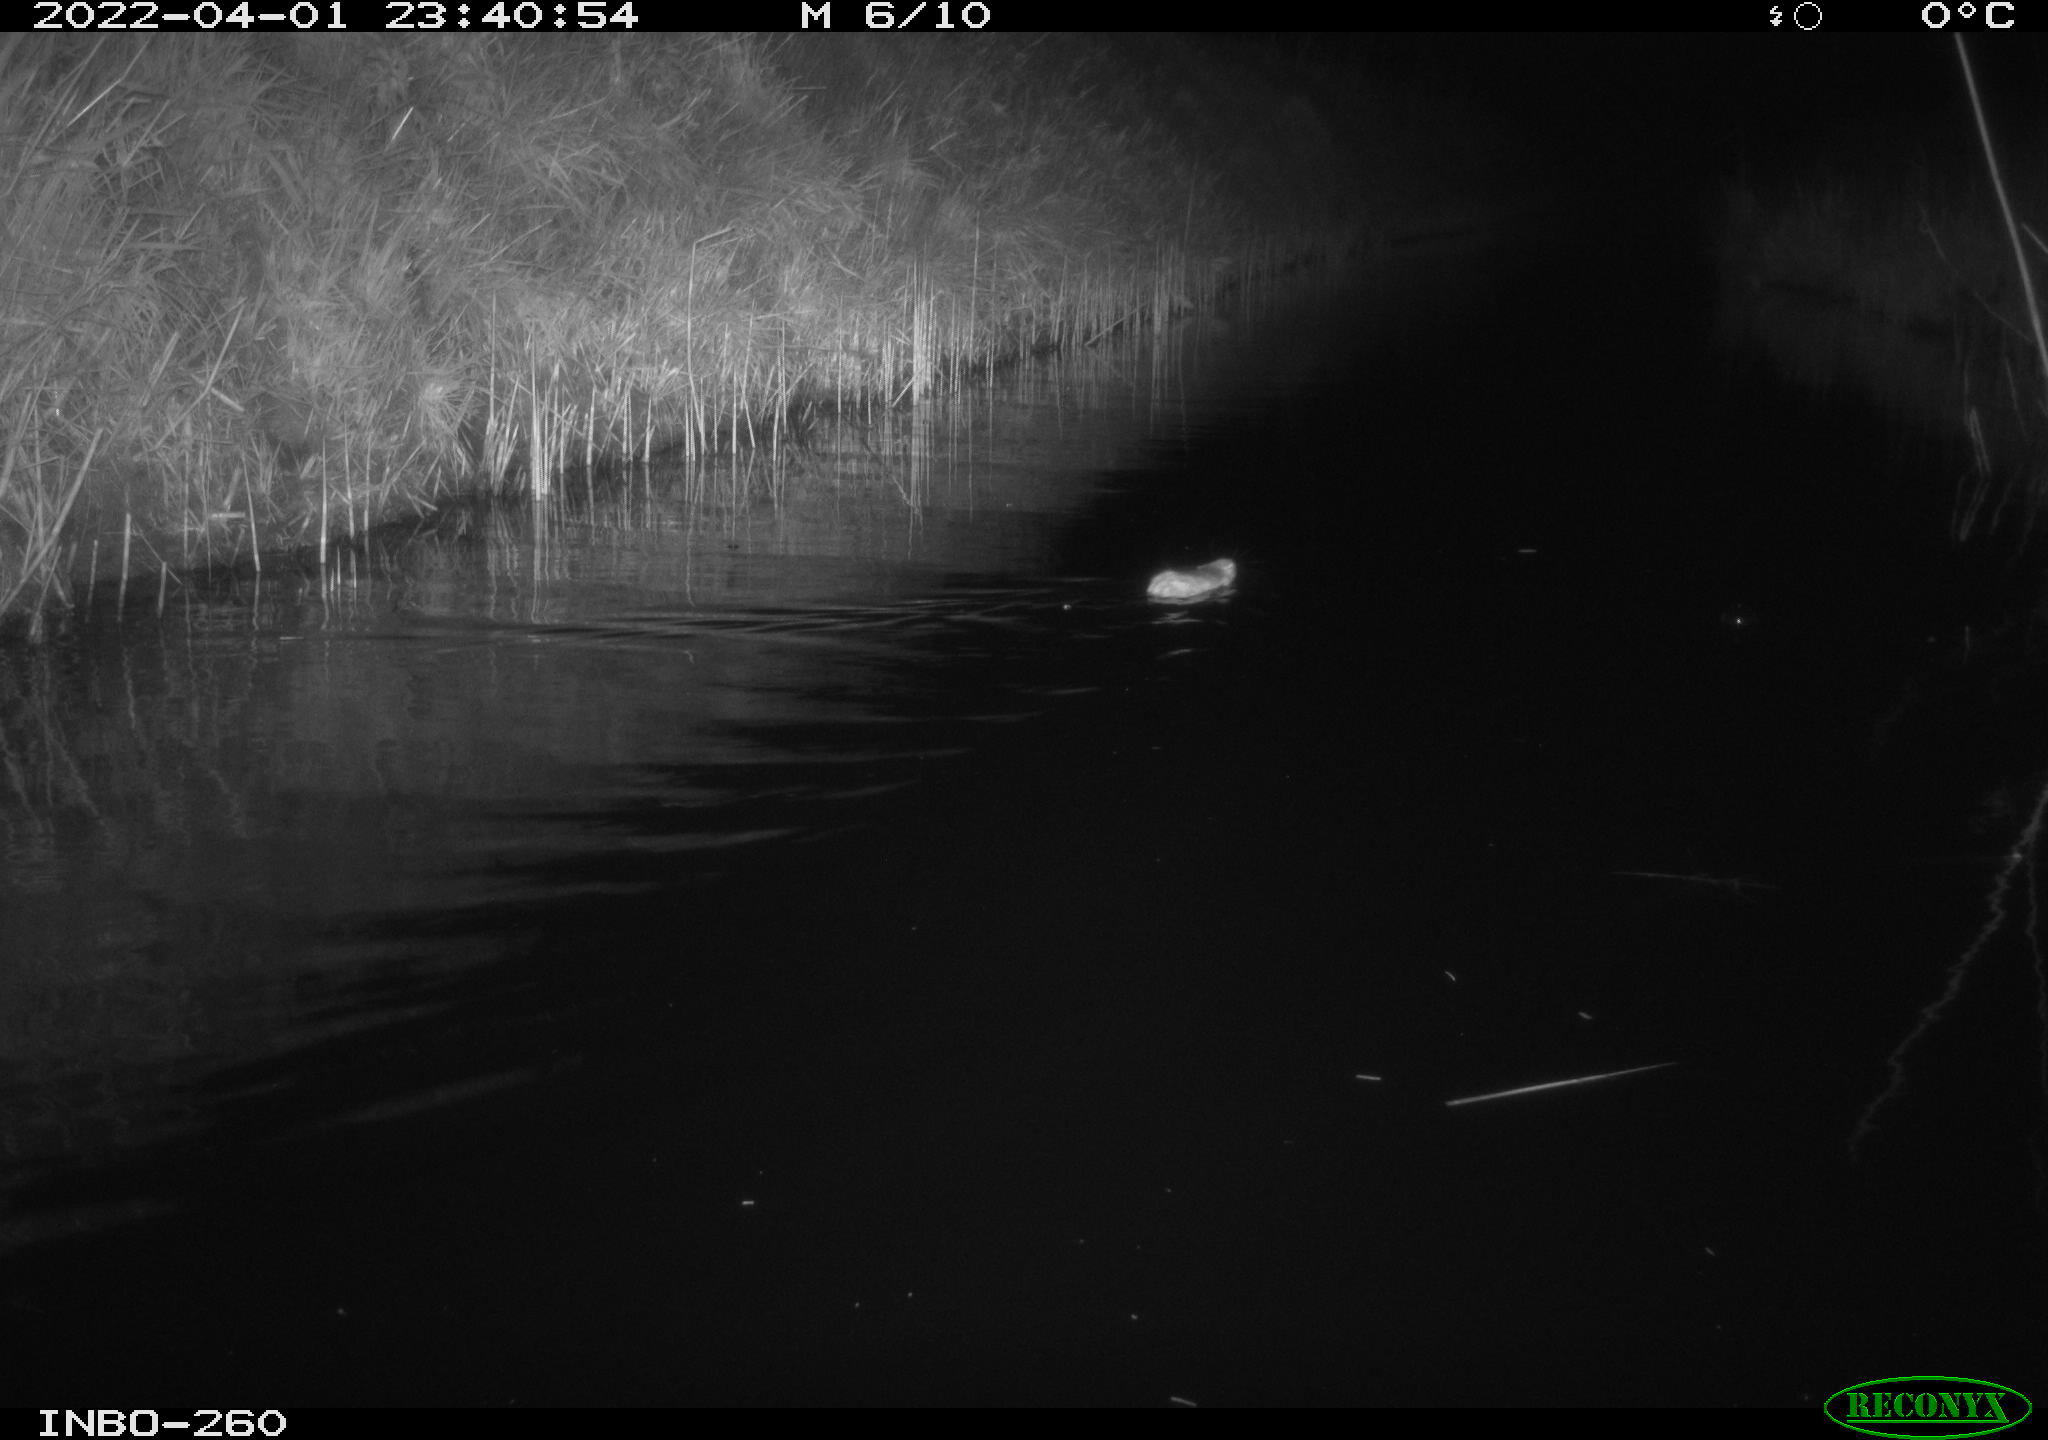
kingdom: Animalia
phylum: Chordata
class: Mammalia
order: Rodentia
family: Muridae
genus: Rattus
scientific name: Rattus norvegicus
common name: Brown rat
